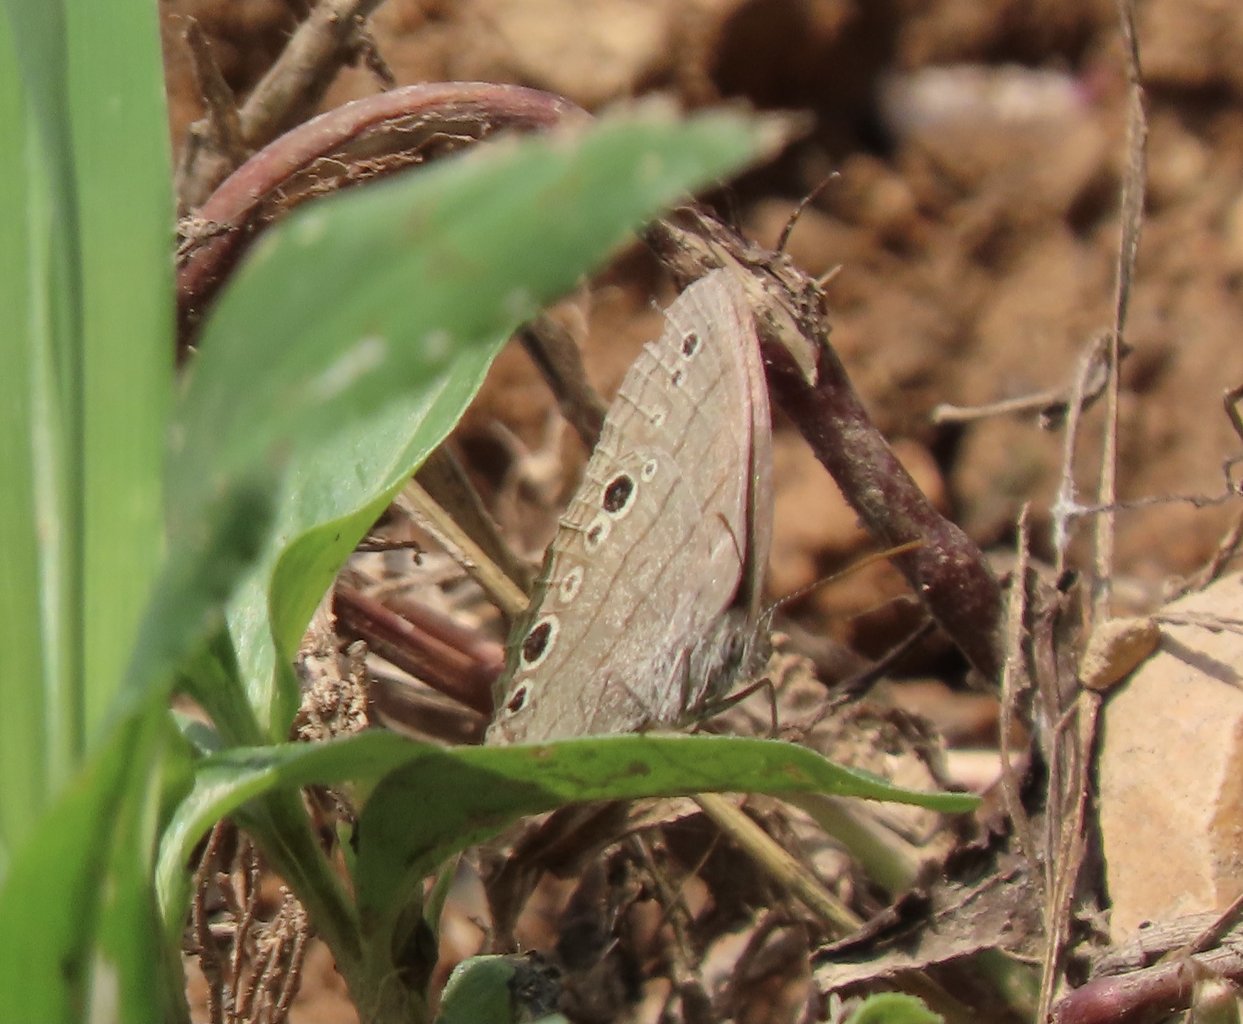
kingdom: Animalia
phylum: Arthropoda
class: Insecta
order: Lepidoptera
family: Nymphalidae
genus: Hermeuptychia
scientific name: Hermeuptychia hermes
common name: Carolina Satyr
